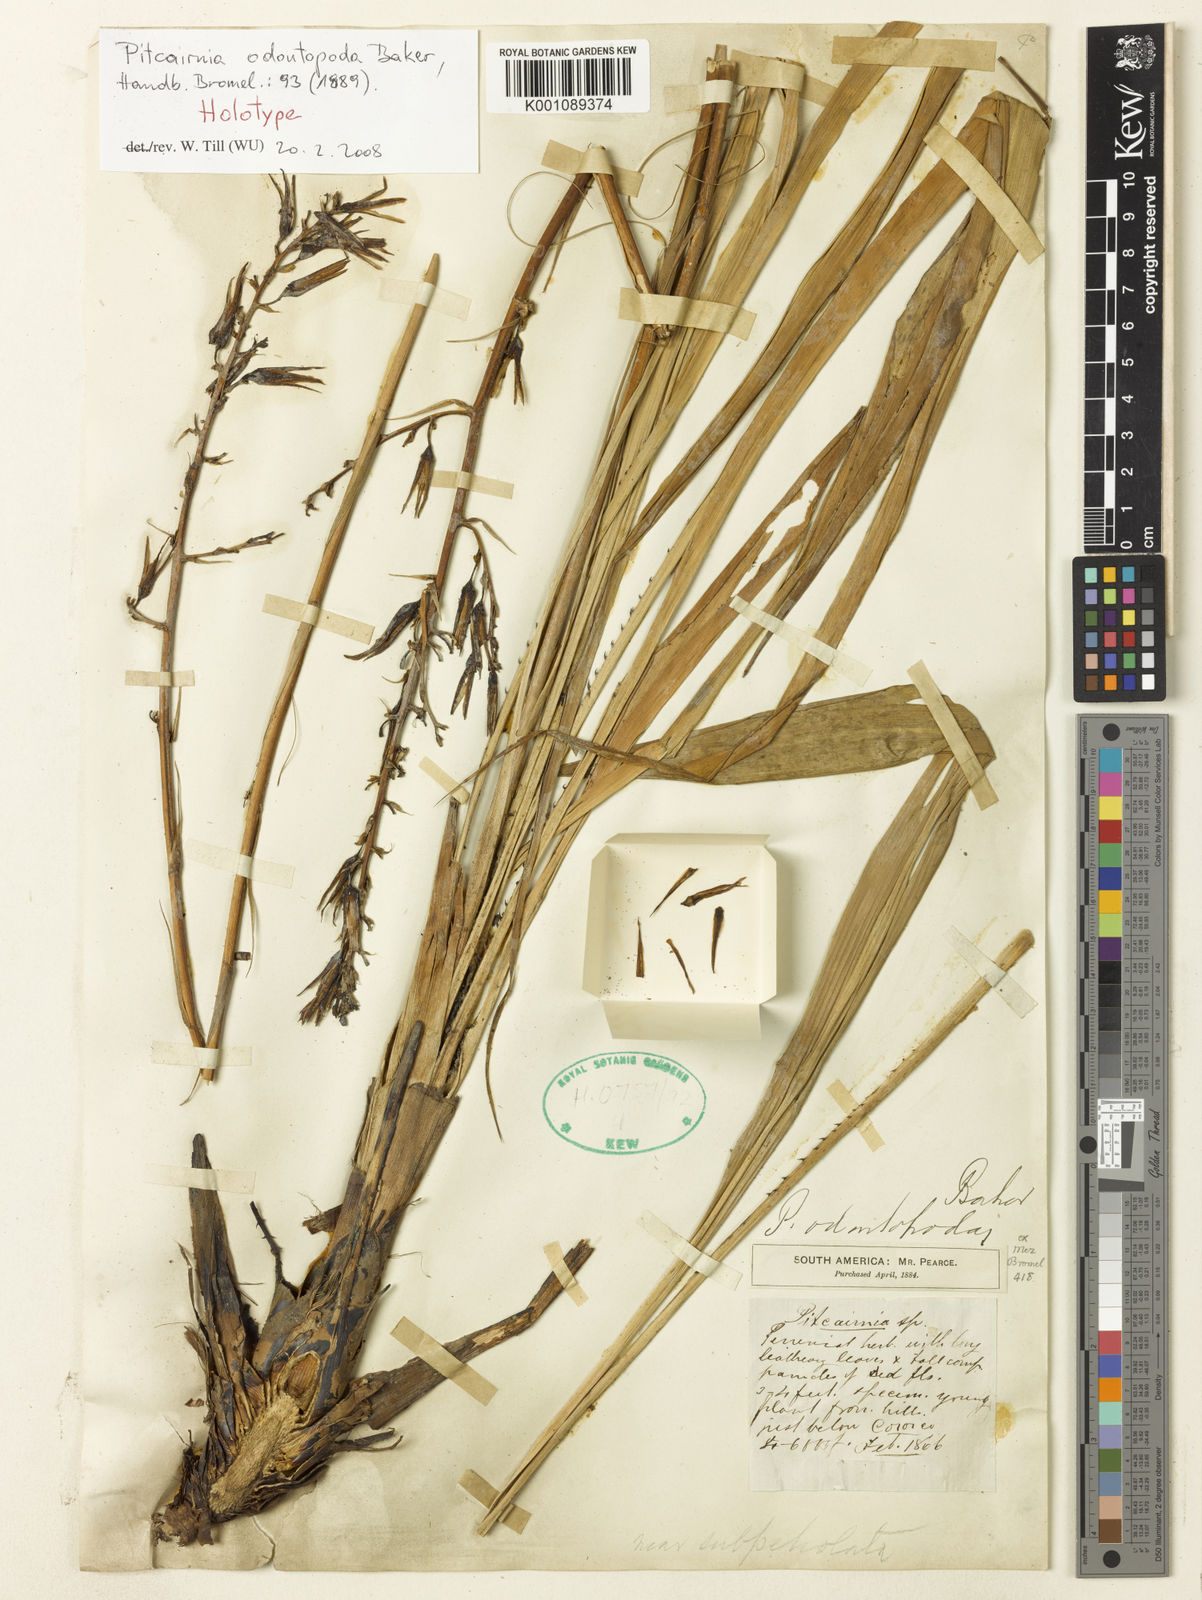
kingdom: Plantae
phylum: Tracheophyta
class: Liliopsida
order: Poales
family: Bromeliaceae
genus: Pitcairnia
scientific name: Pitcairnia odontopoda
